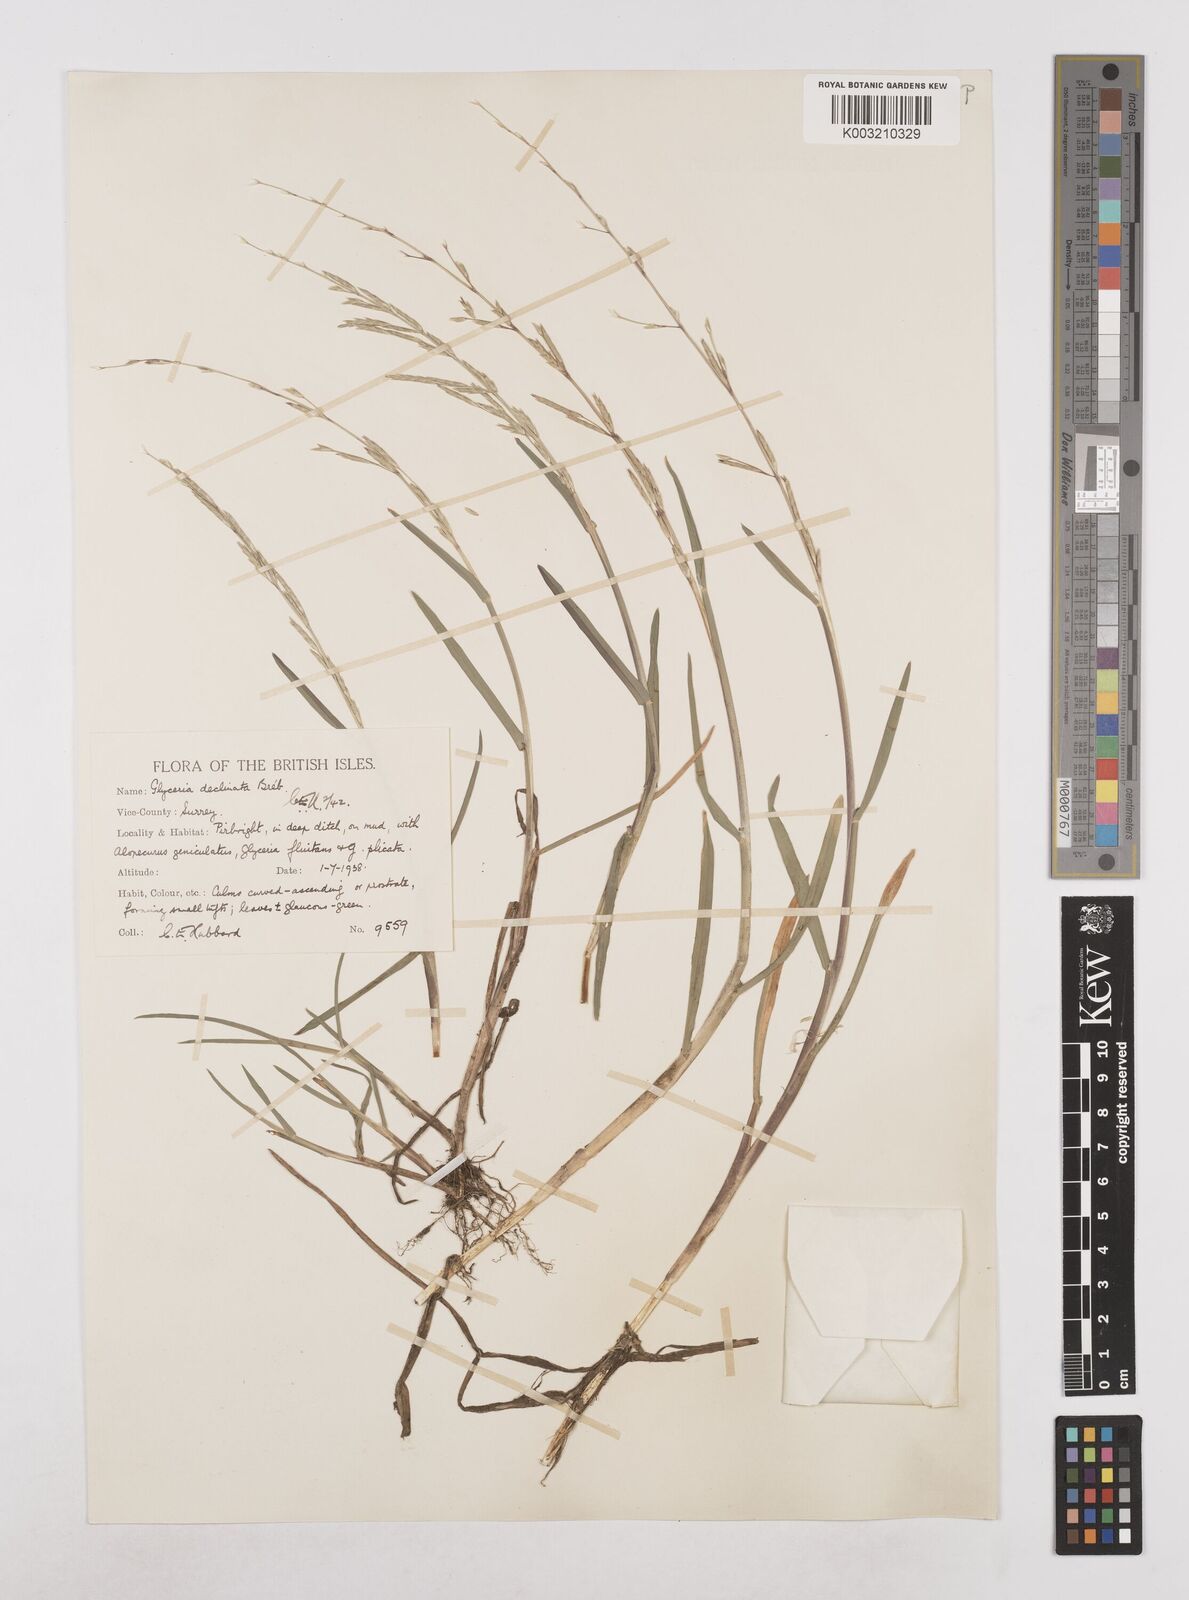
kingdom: Plantae
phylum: Tracheophyta
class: Liliopsida
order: Poales
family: Poaceae
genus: Glyceria
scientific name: Glyceria declinata
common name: Small sweet-grass
